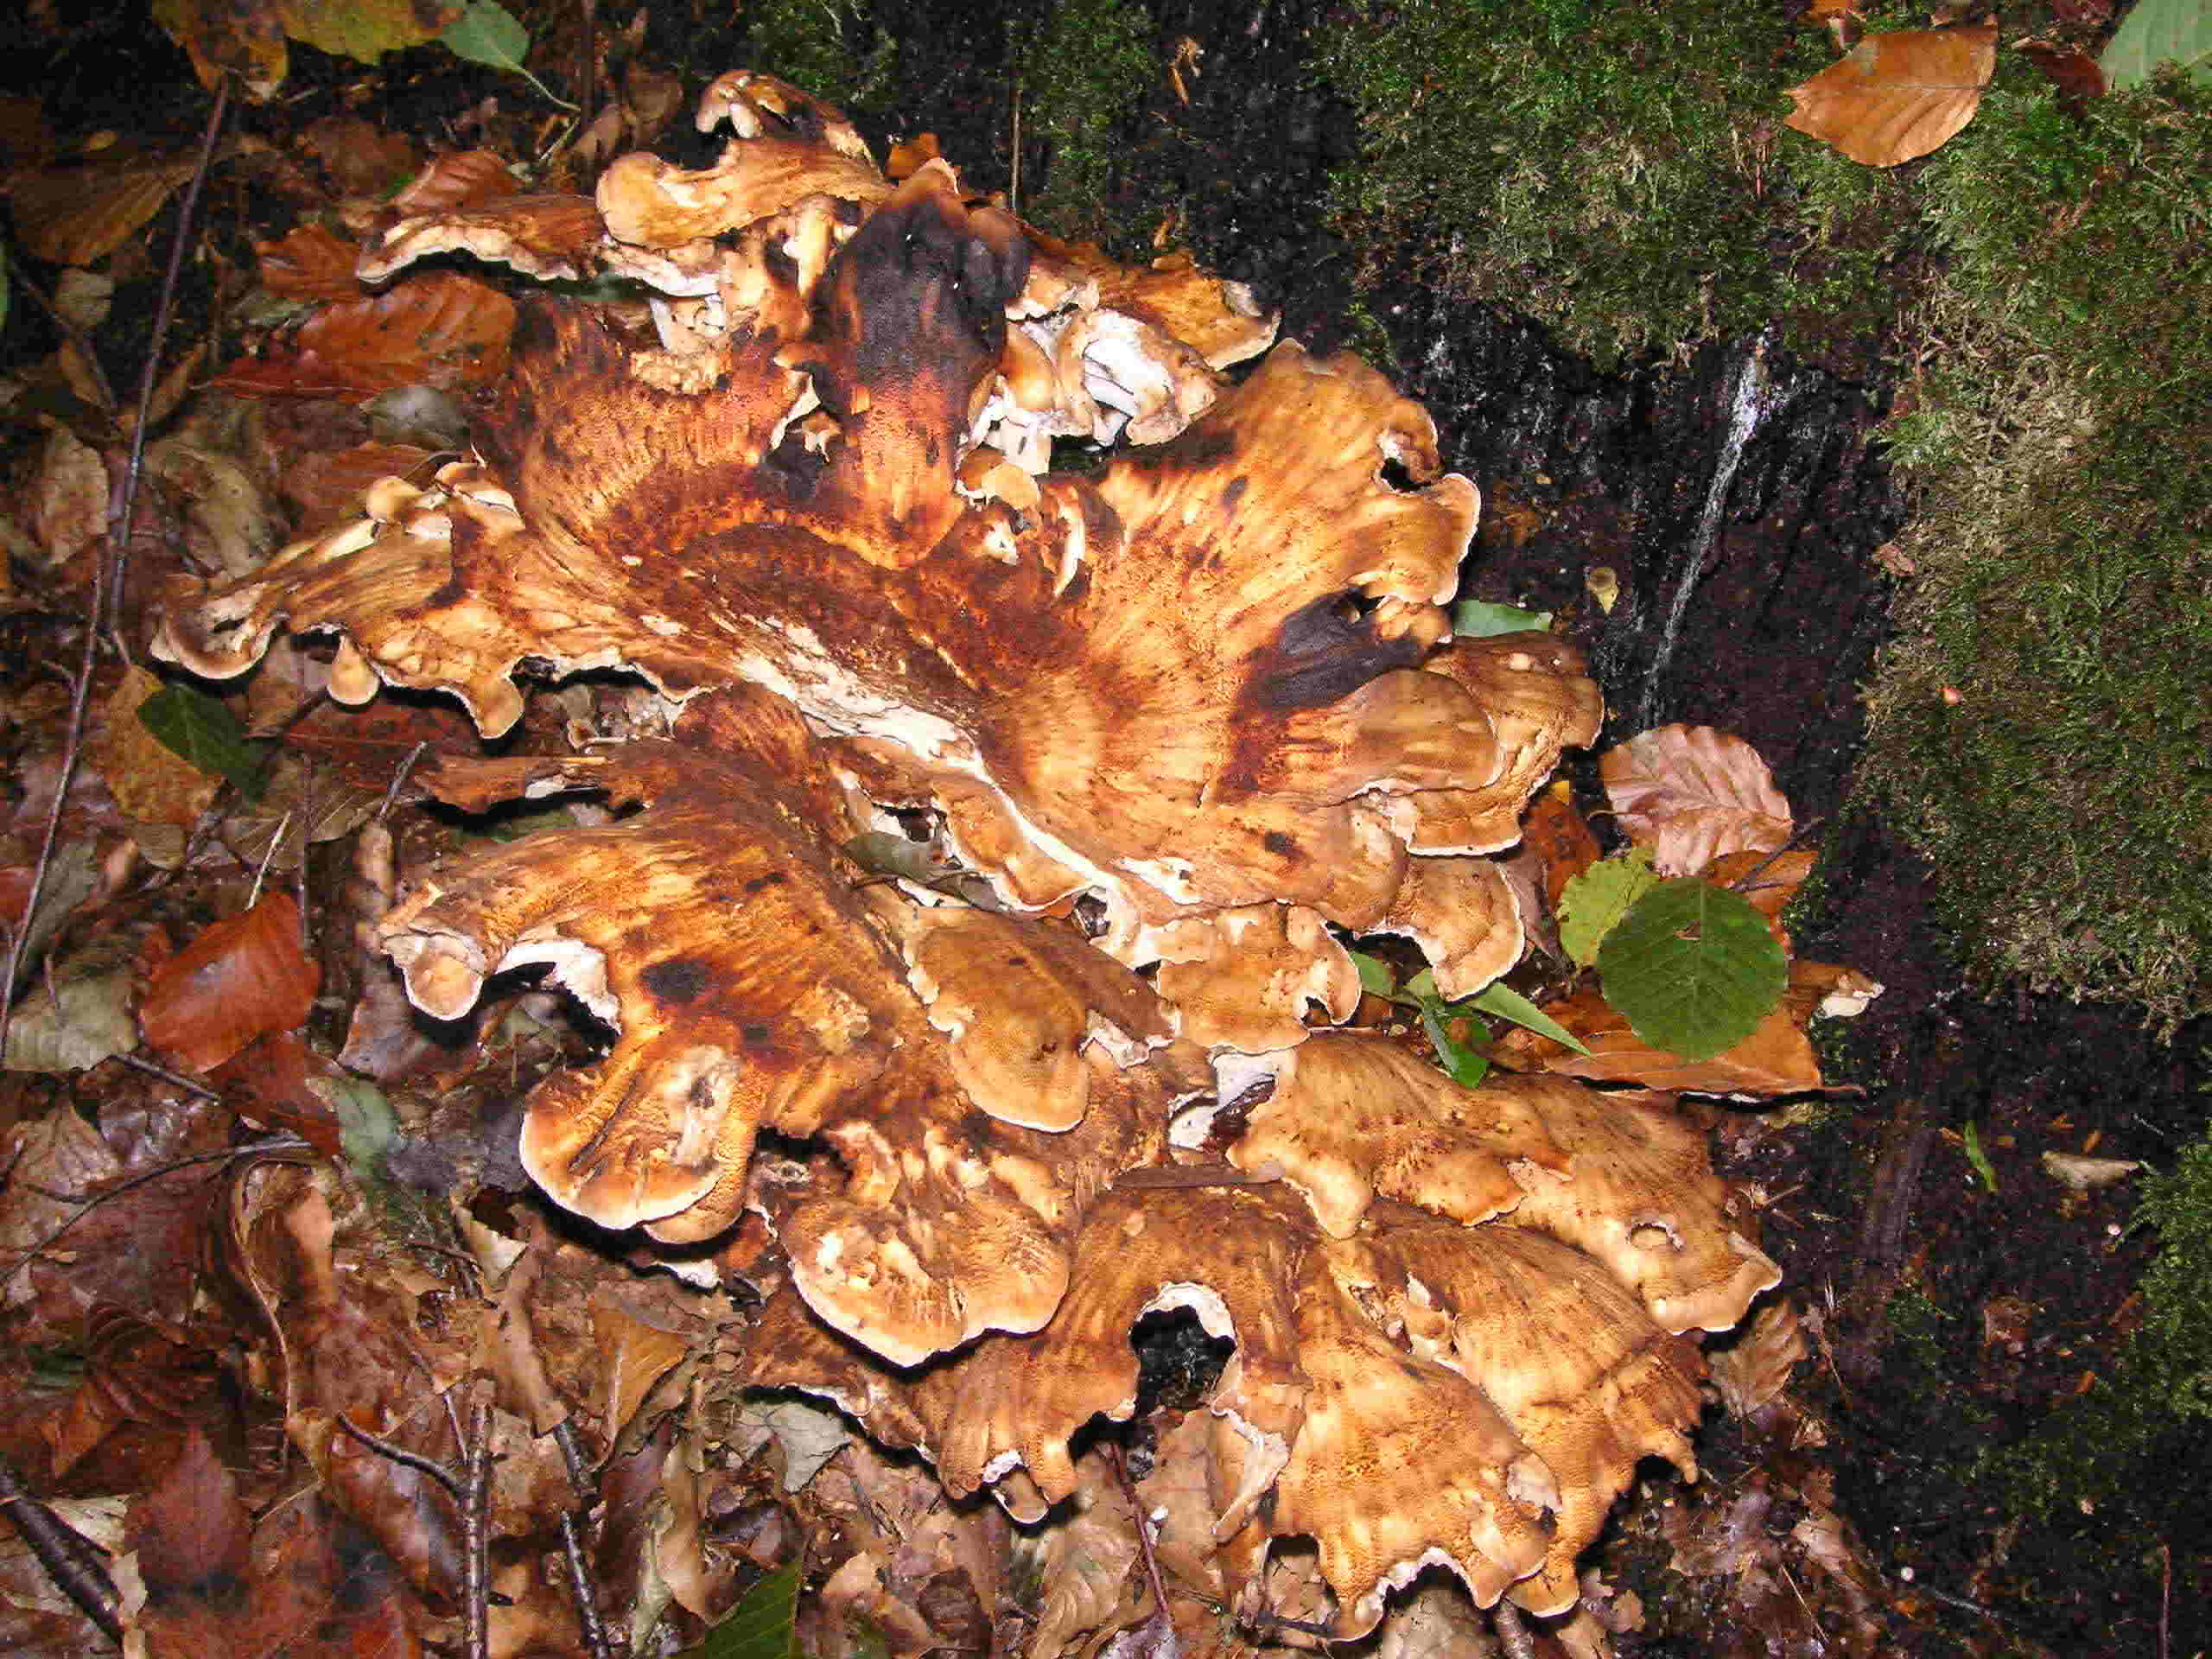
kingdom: Fungi
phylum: Basidiomycota
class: Agaricomycetes
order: Polyporales
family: Meripilaceae
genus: Meripilus
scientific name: Meripilus giganteus
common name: kæmpeporesvamp
